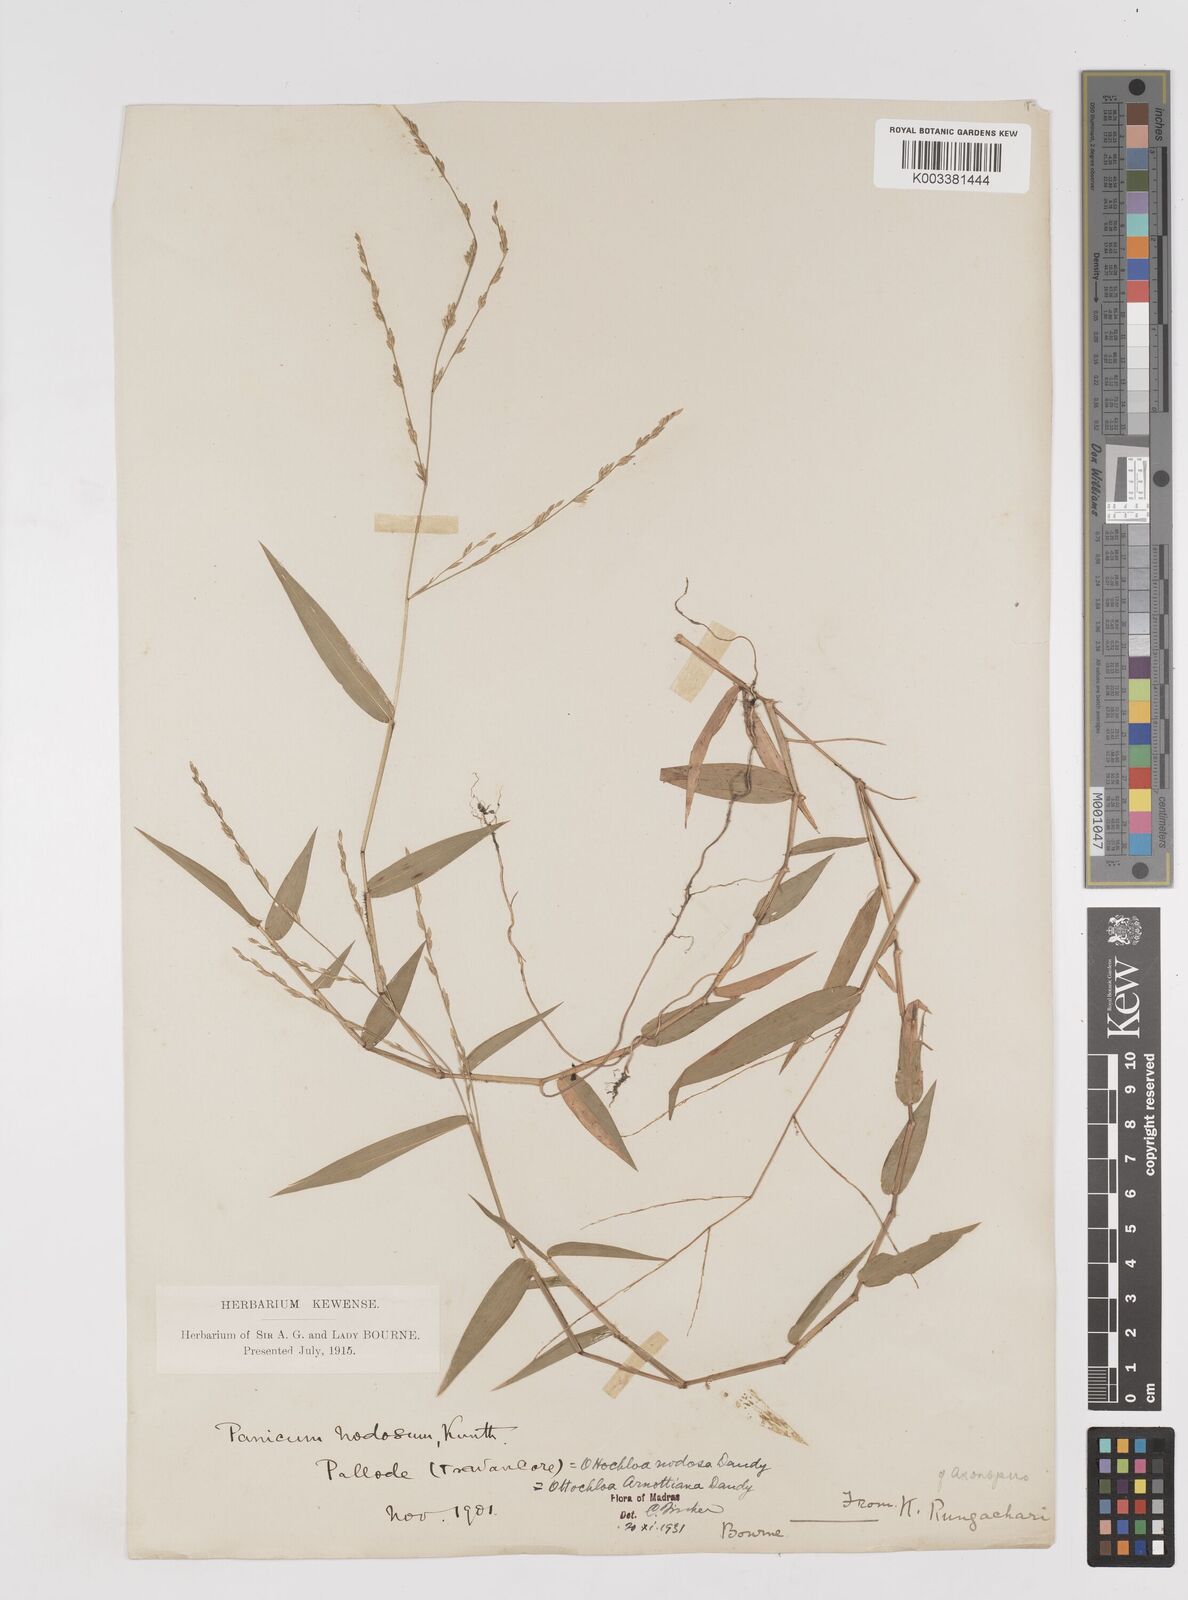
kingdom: Plantae
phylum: Tracheophyta
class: Liliopsida
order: Poales
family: Poaceae
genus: Ottochloa
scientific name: Ottochloa nodosa
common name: Slender-panic grass
